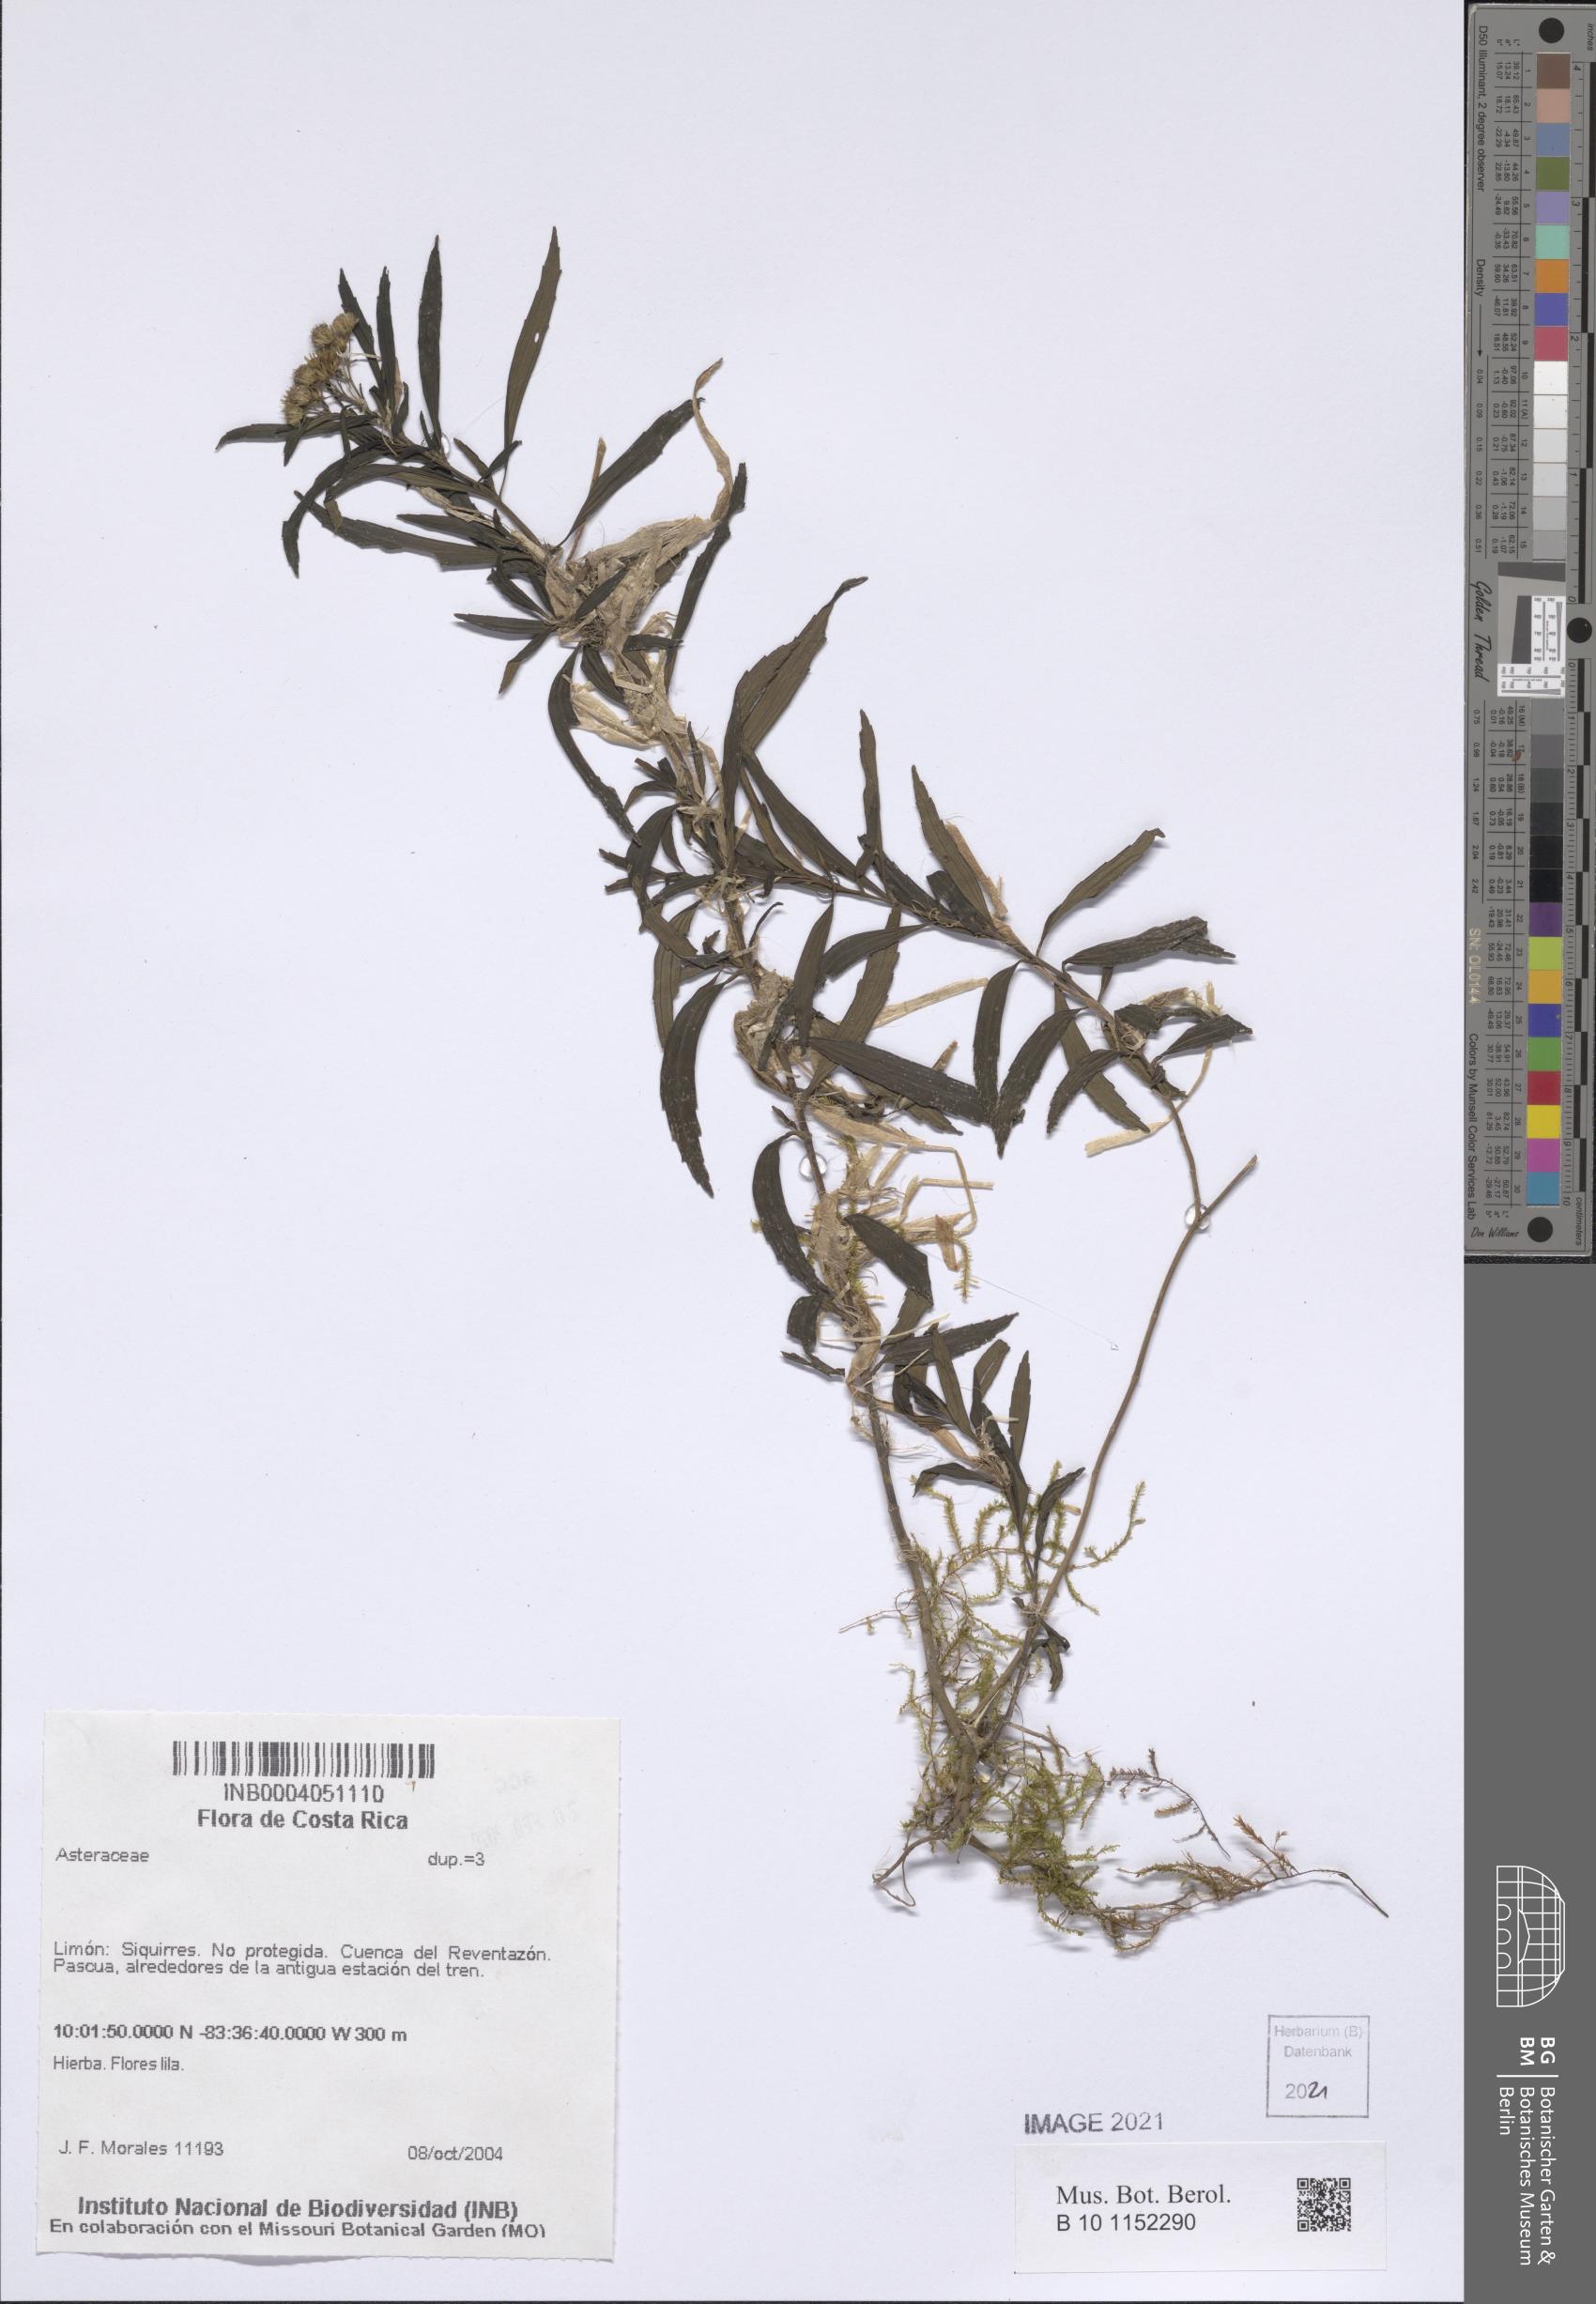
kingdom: Plantae
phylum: Tracheophyta
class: Magnoliopsida
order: Asterales
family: Asteraceae
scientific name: Asteraceae
